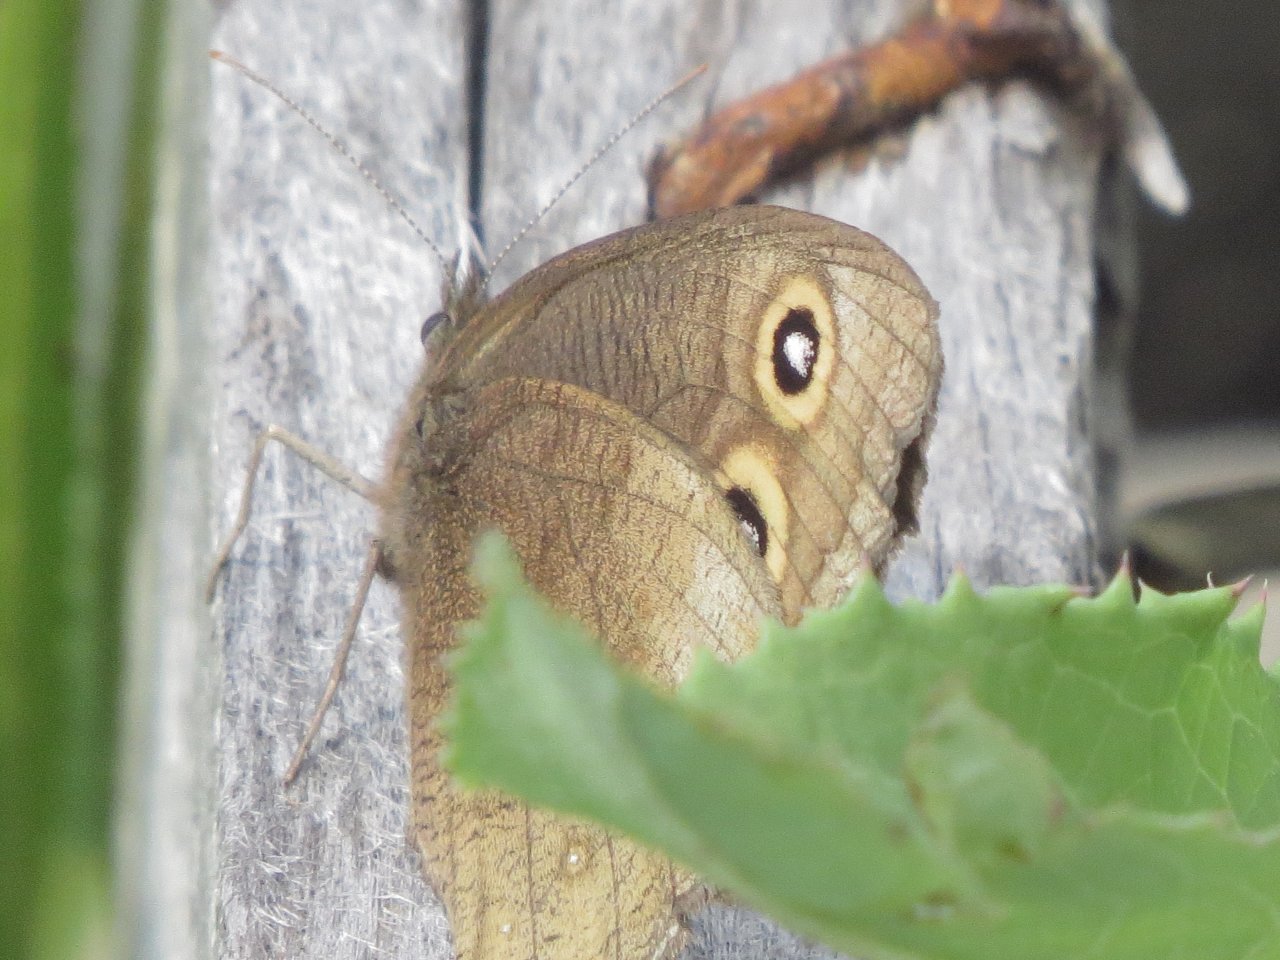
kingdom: Animalia
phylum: Arthropoda
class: Insecta
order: Lepidoptera
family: Nymphalidae
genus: Cercyonis
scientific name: Cercyonis pegala
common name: Common Wood-Nymph
